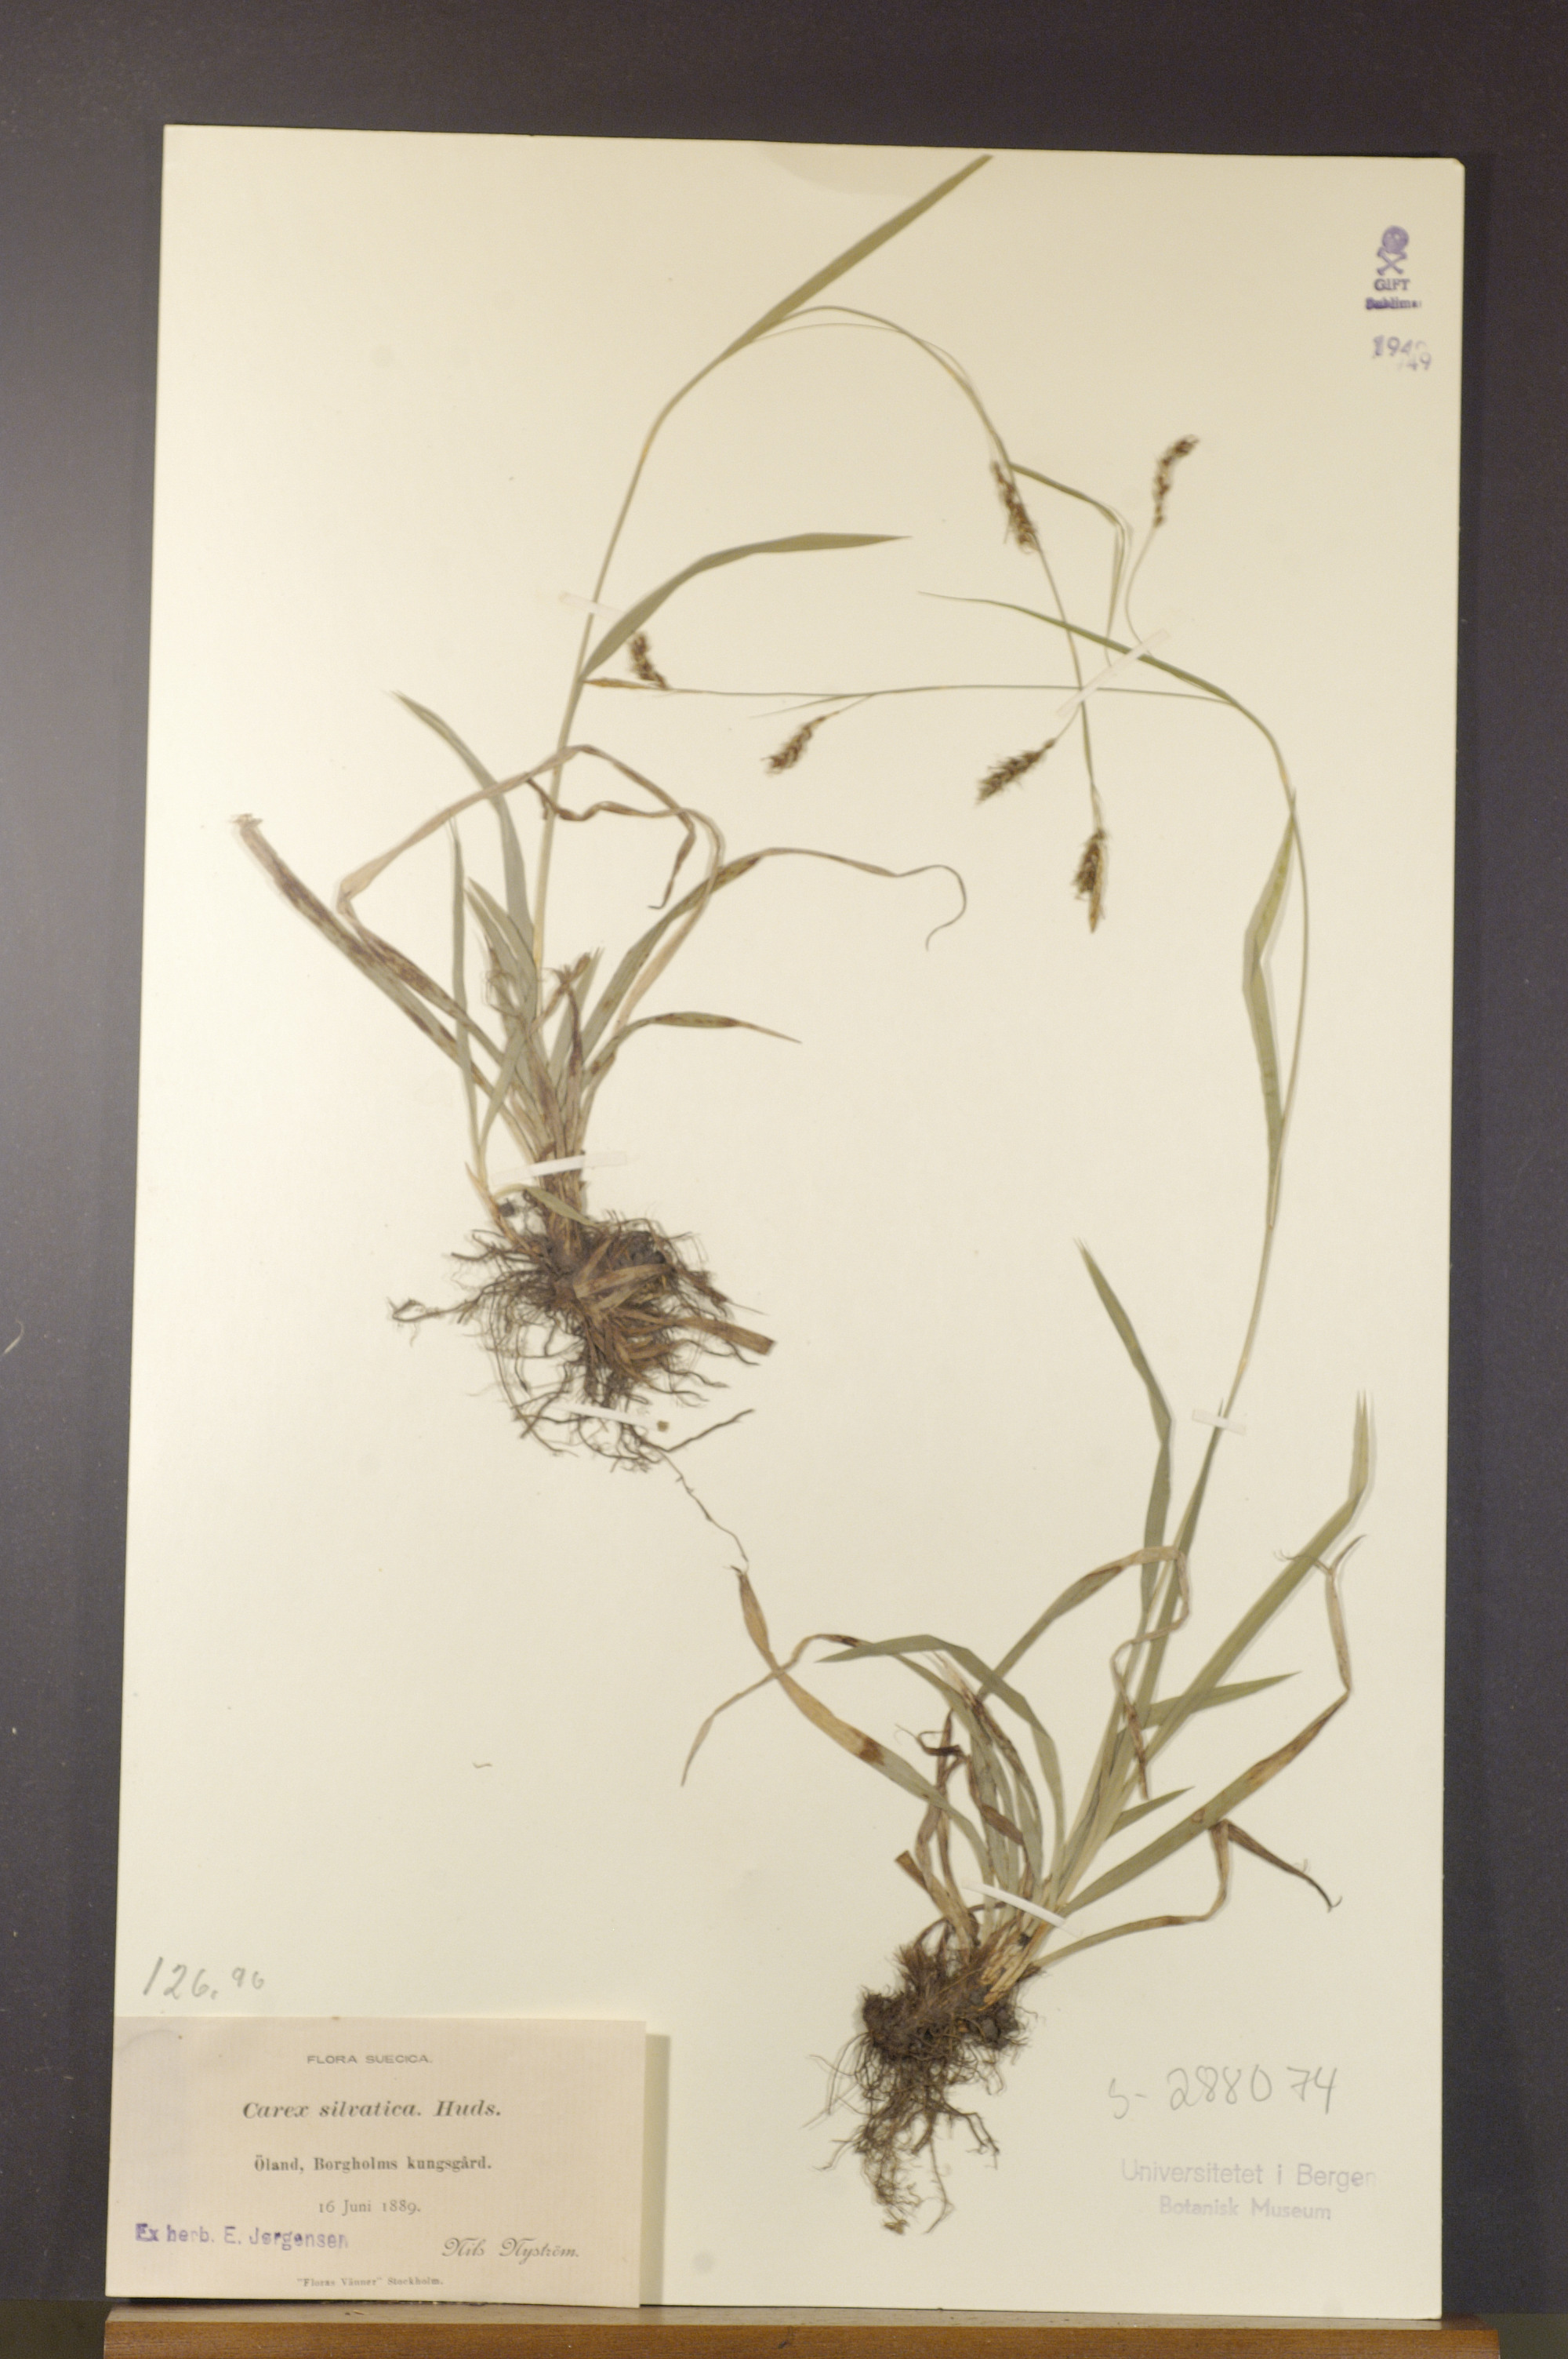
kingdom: Plantae
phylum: Tracheophyta
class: Liliopsida
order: Poales
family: Cyperaceae
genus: Carex
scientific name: Carex sylvatica
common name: Wood-sedge
